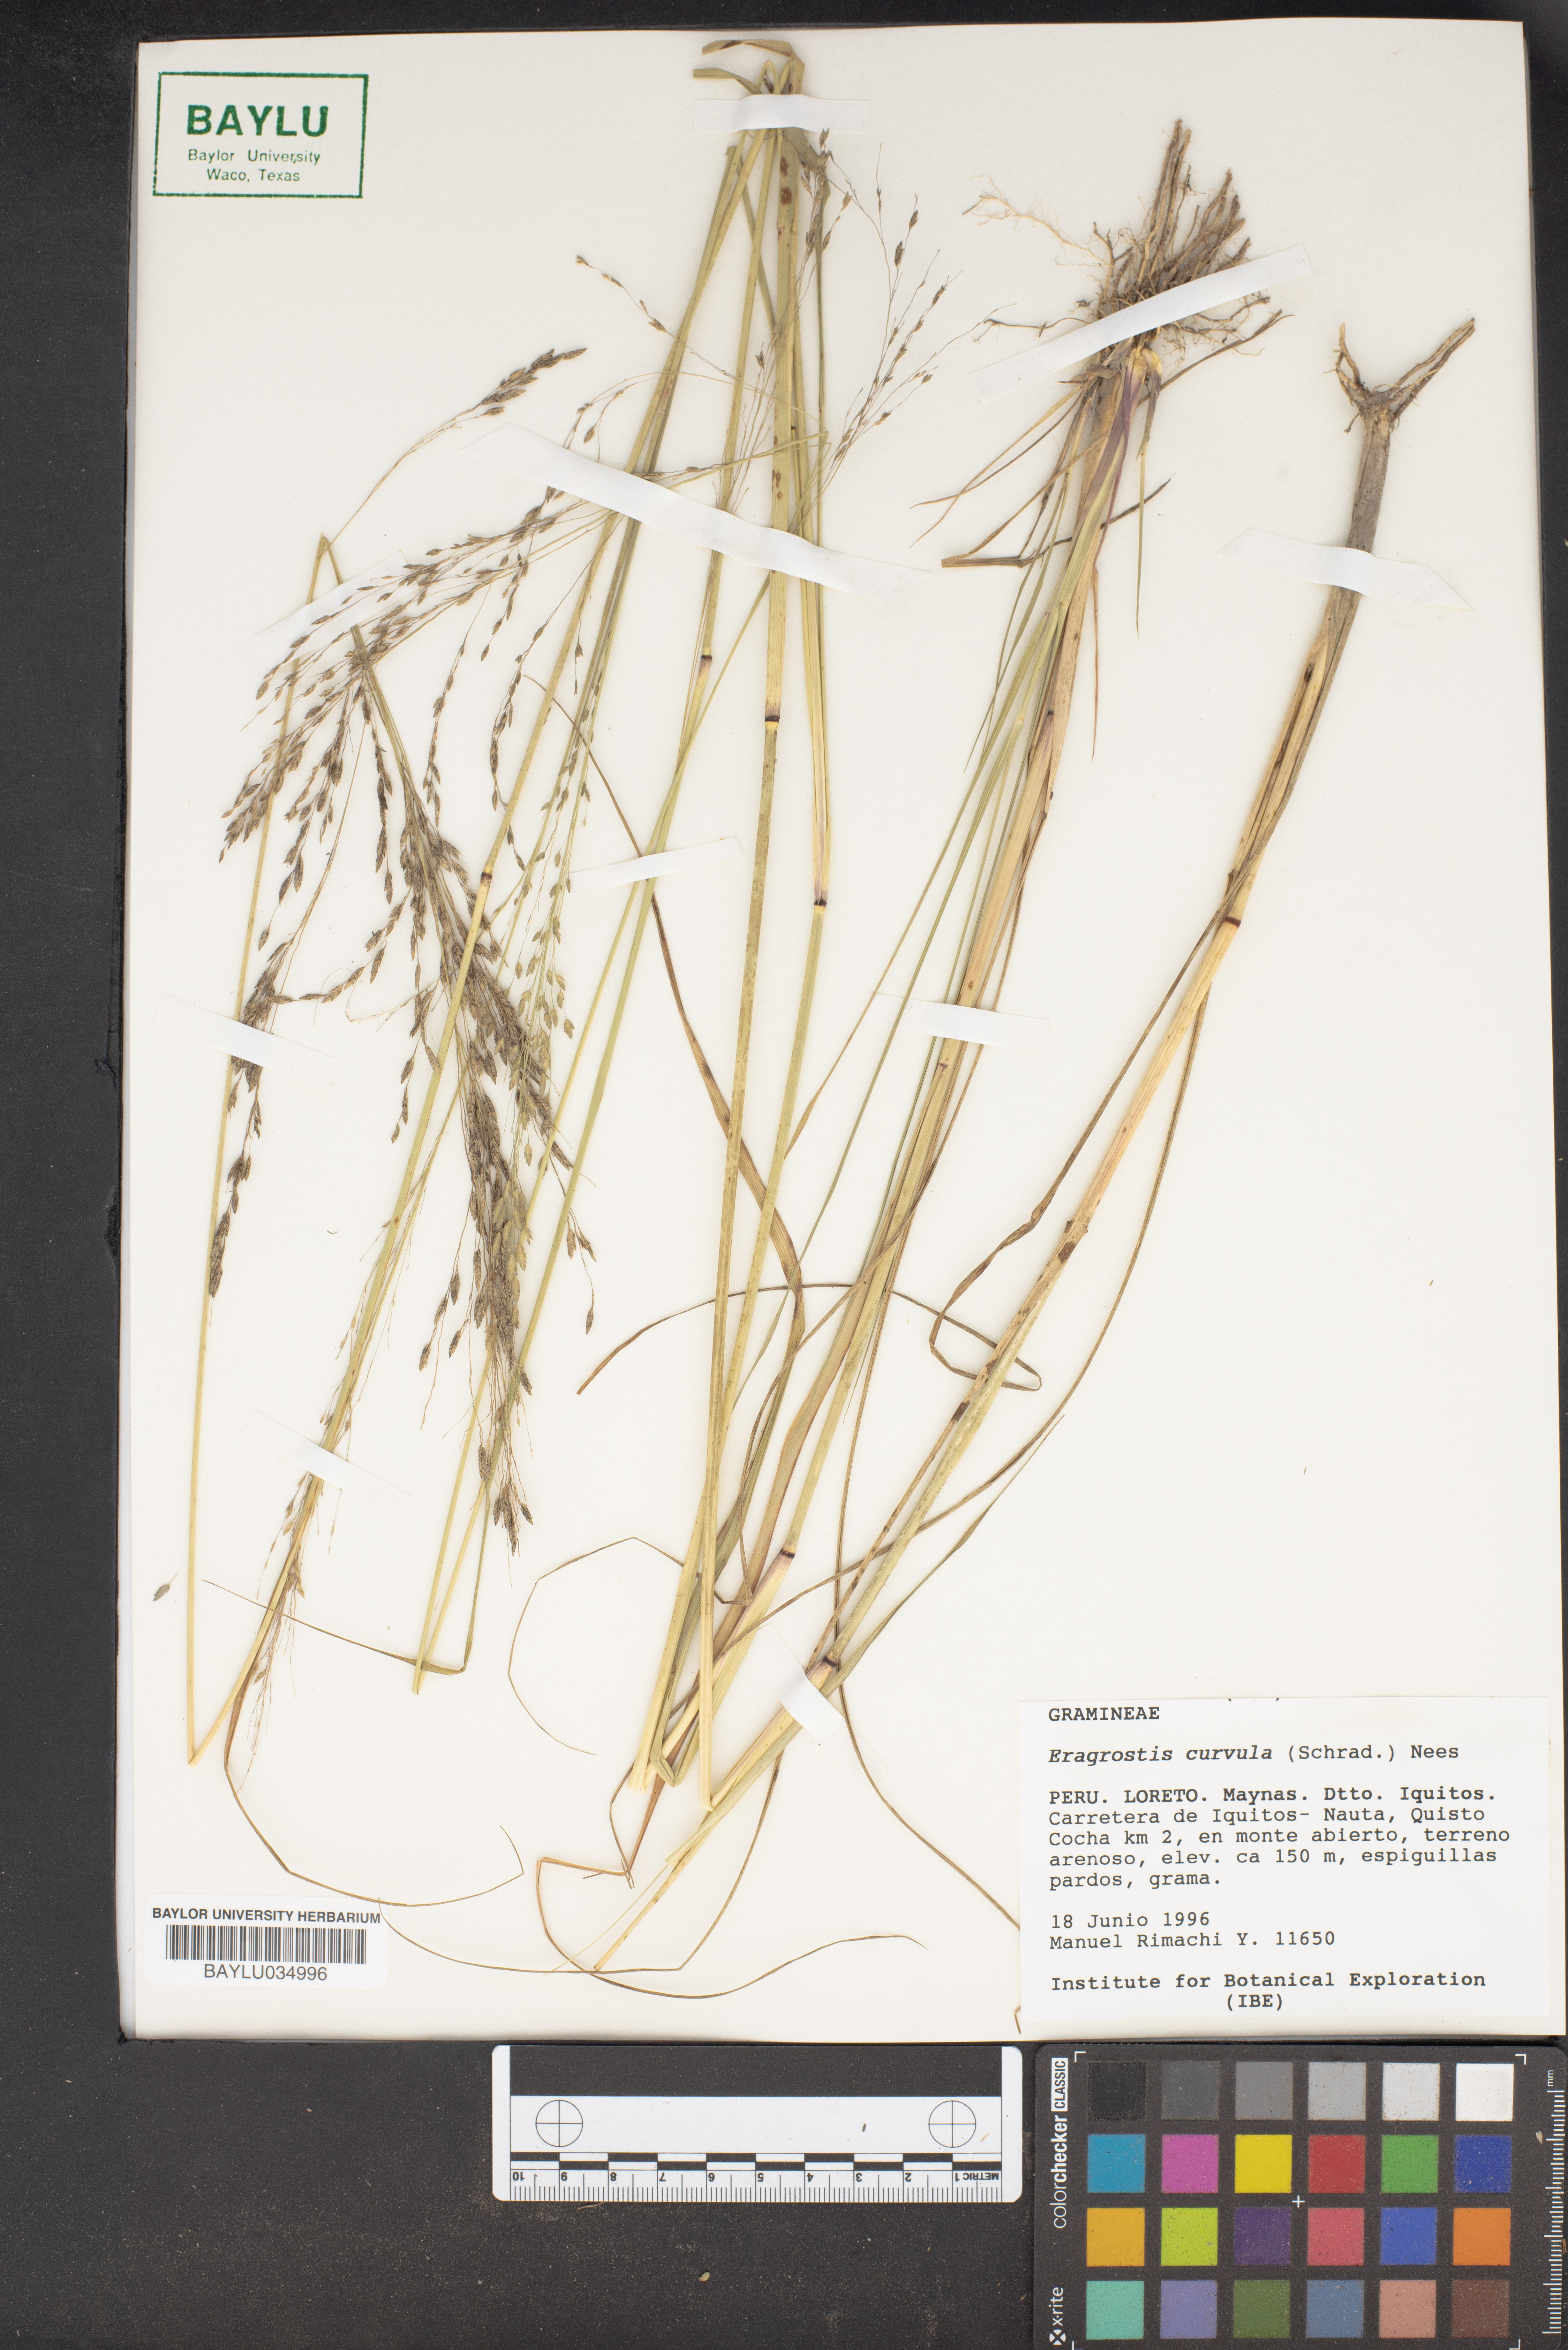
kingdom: Plantae
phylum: Tracheophyta
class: Liliopsida
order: Poales
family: Poaceae
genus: Eragrostis
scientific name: Eragrostis curvula
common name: African love-grass
